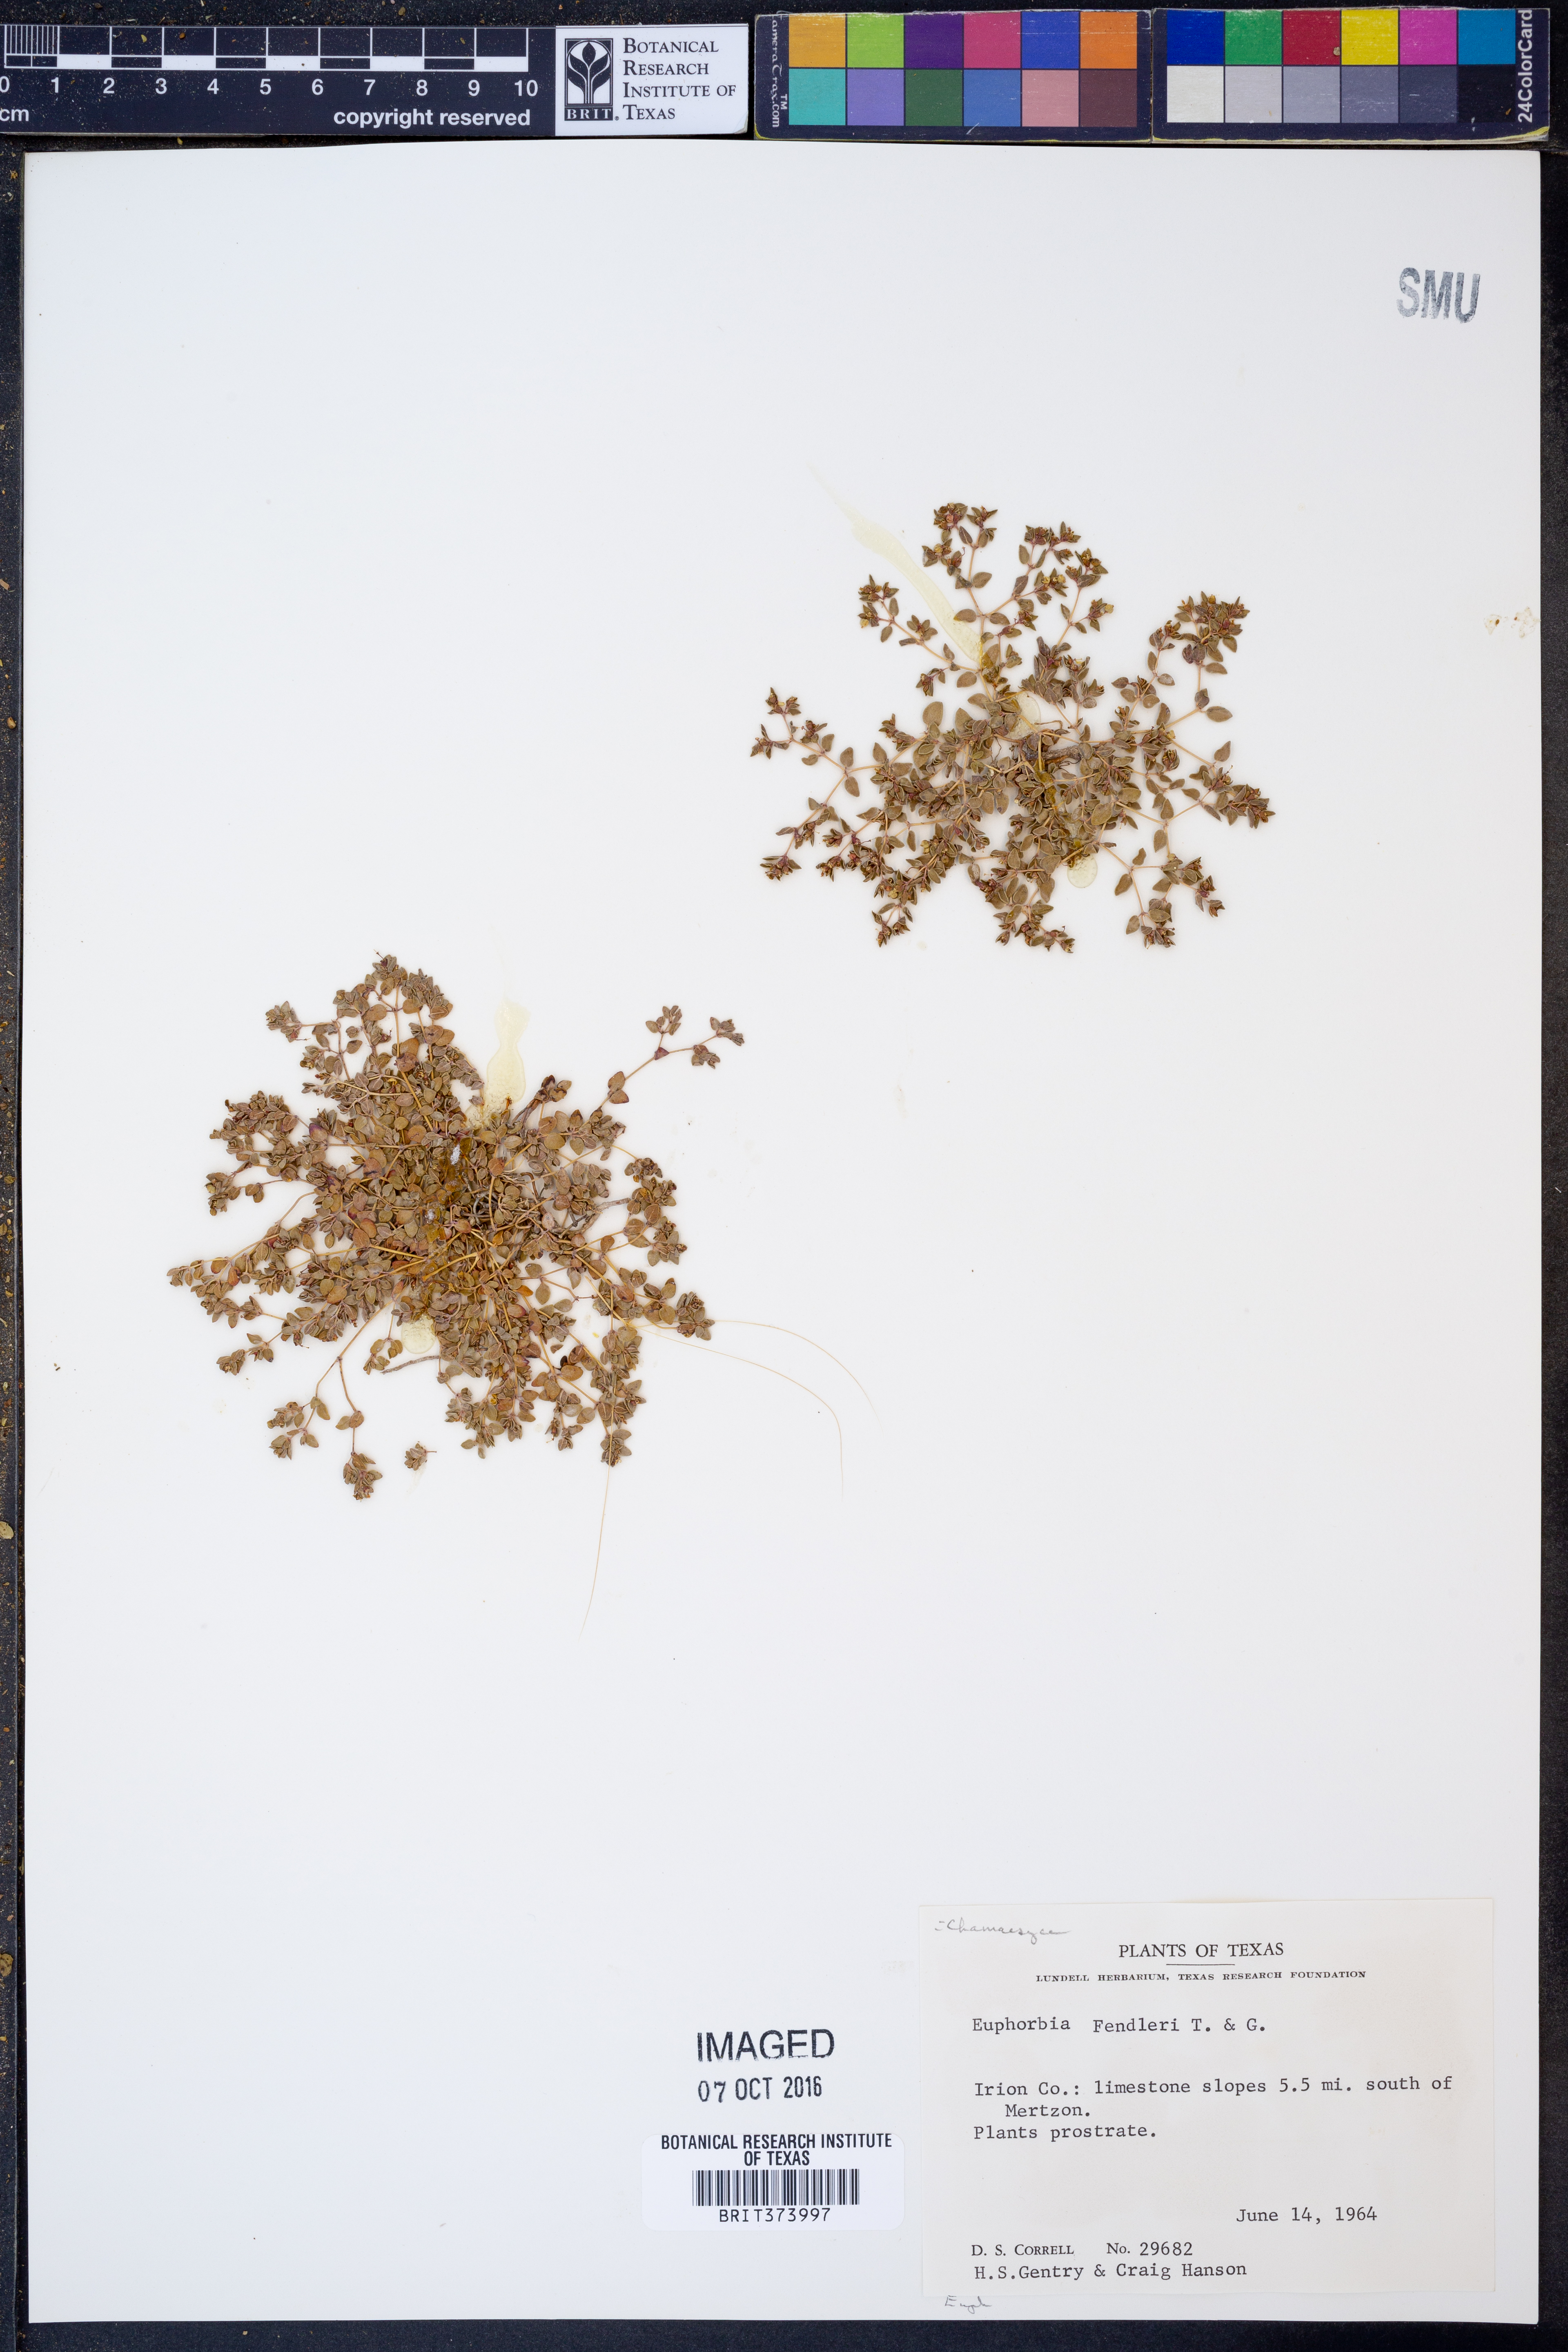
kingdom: Plantae
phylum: Tracheophyta
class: Magnoliopsida
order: Malpighiales
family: Euphorbiaceae
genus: Euphorbia
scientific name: Euphorbia fendleri
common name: Fendler's euphorbia
